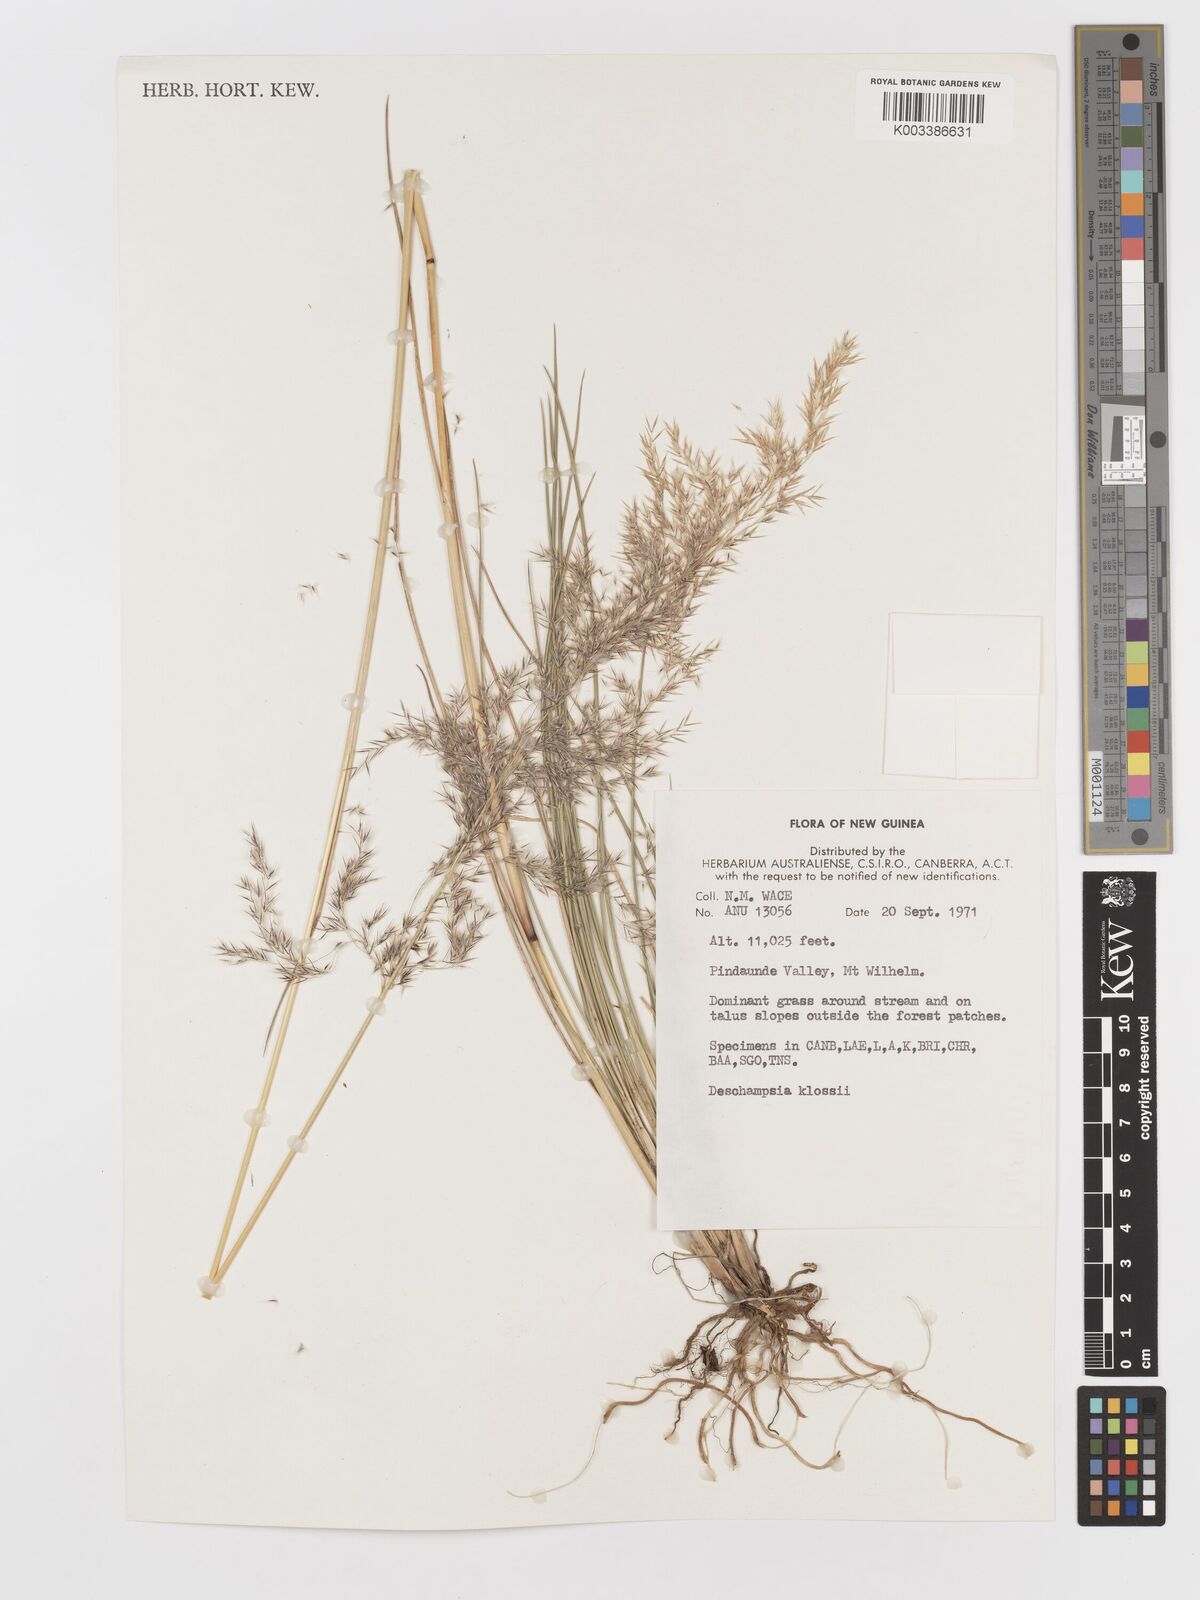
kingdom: Plantae
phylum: Tracheophyta
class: Liliopsida
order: Poales
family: Poaceae
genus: Deschampsia
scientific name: Deschampsia klossii
